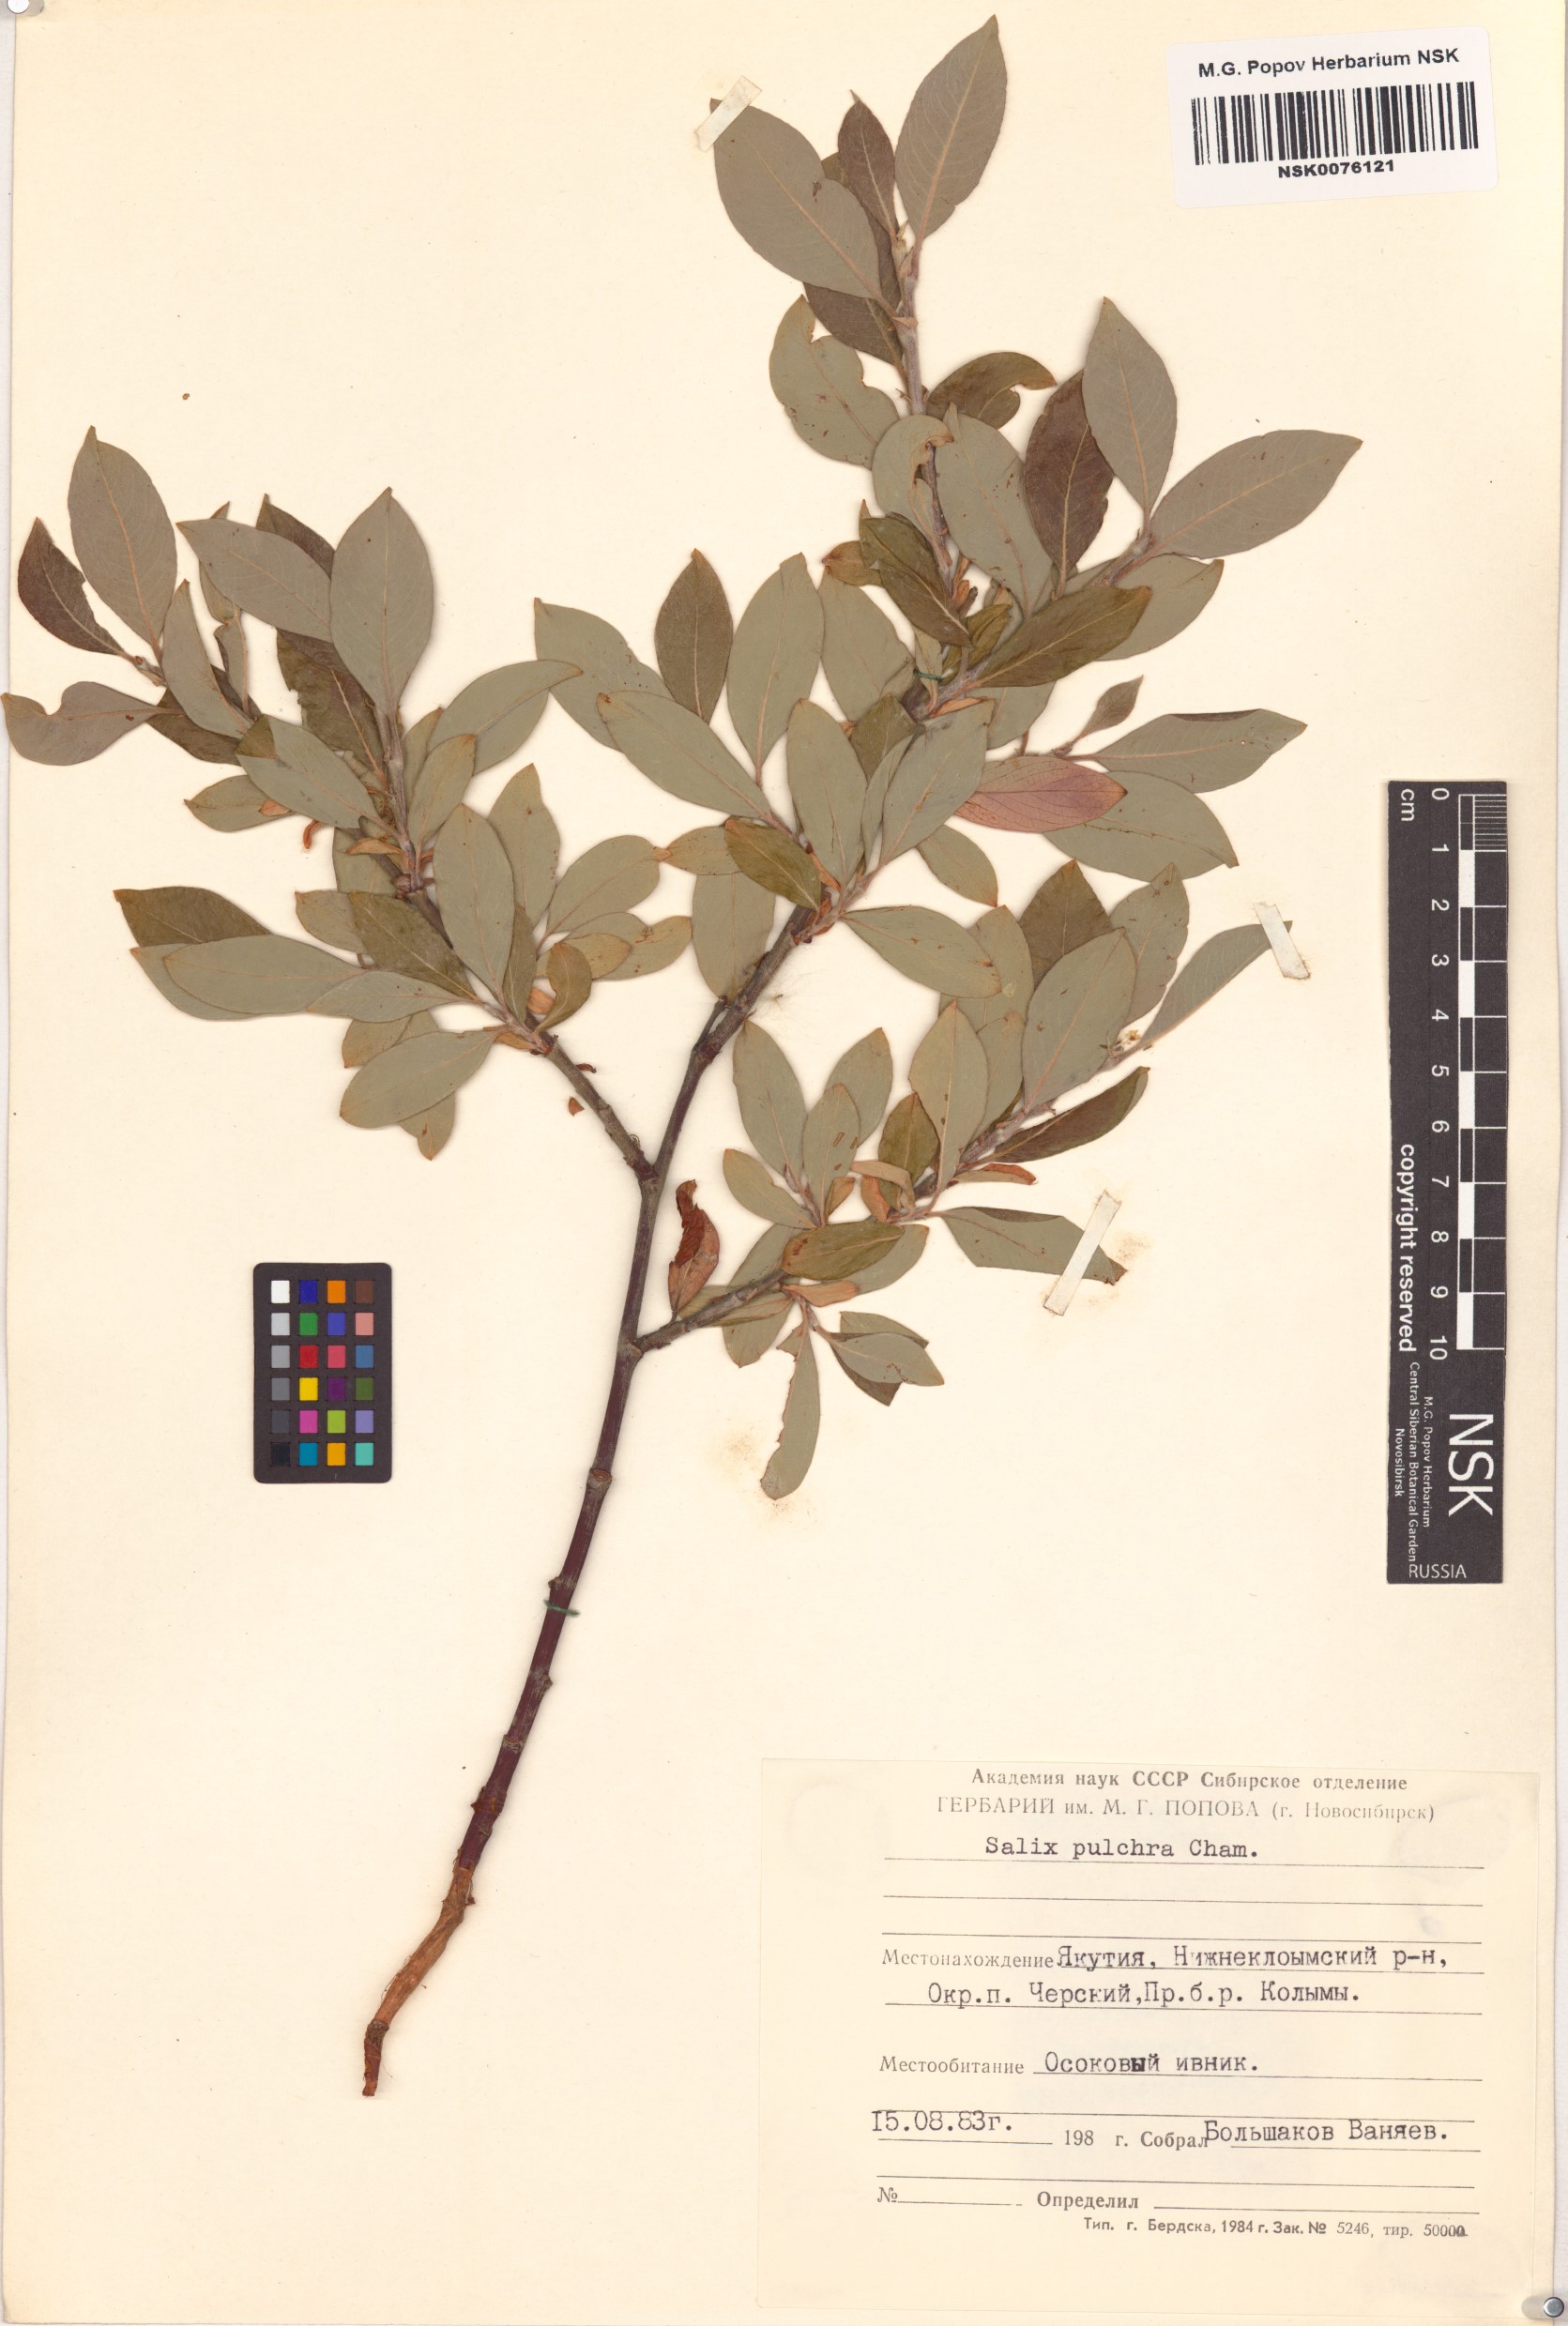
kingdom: Plantae
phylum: Tracheophyta
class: Magnoliopsida
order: Malpighiales
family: Salicaceae
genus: Salix
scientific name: Salix pulchra
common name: Diamond-leaved willow
